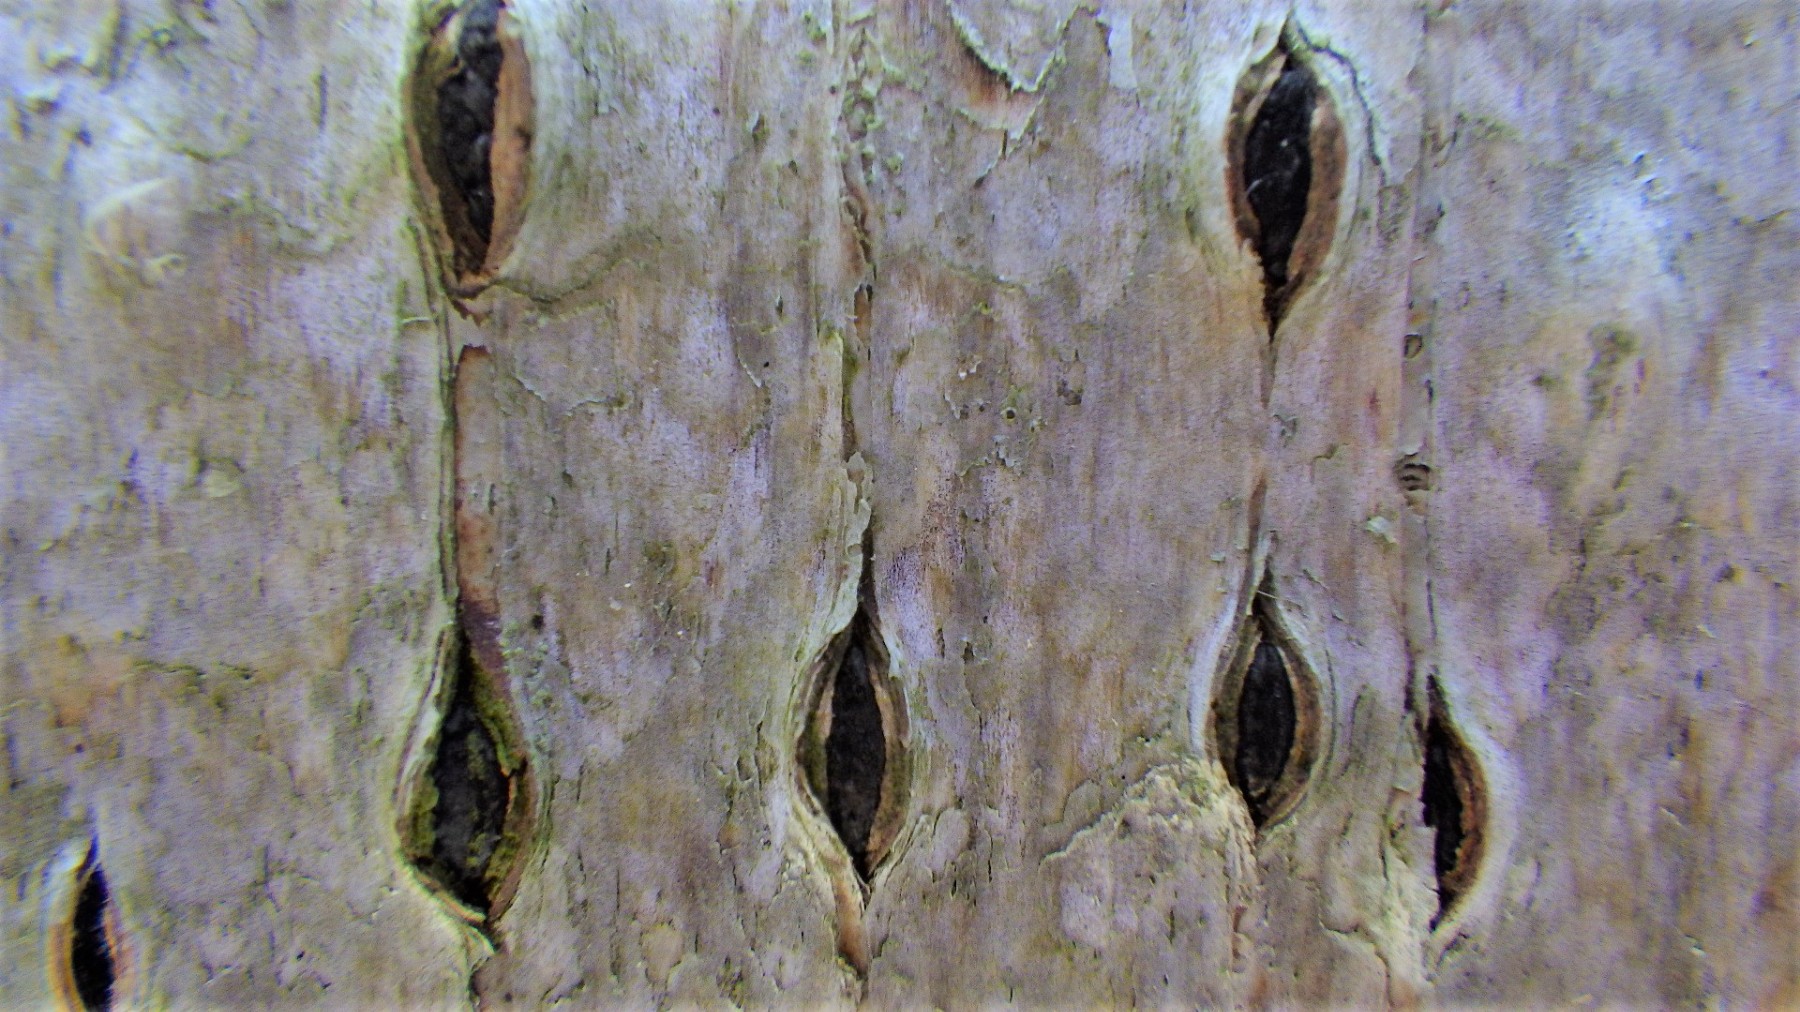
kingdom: Fungi
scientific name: Fungi
